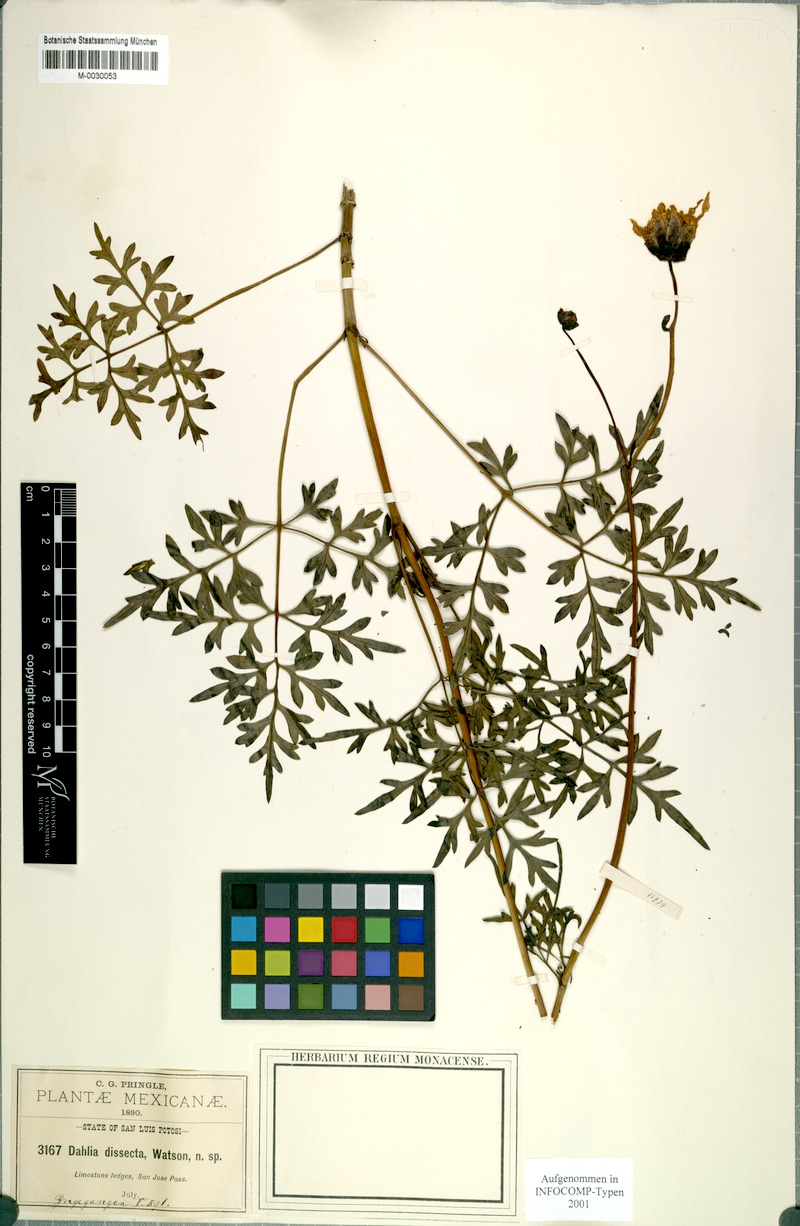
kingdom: Plantae
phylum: Tracheophyta
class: Magnoliopsida
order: Asterales
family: Asteraceae
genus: Dahlia
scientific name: Dahlia dissecta
